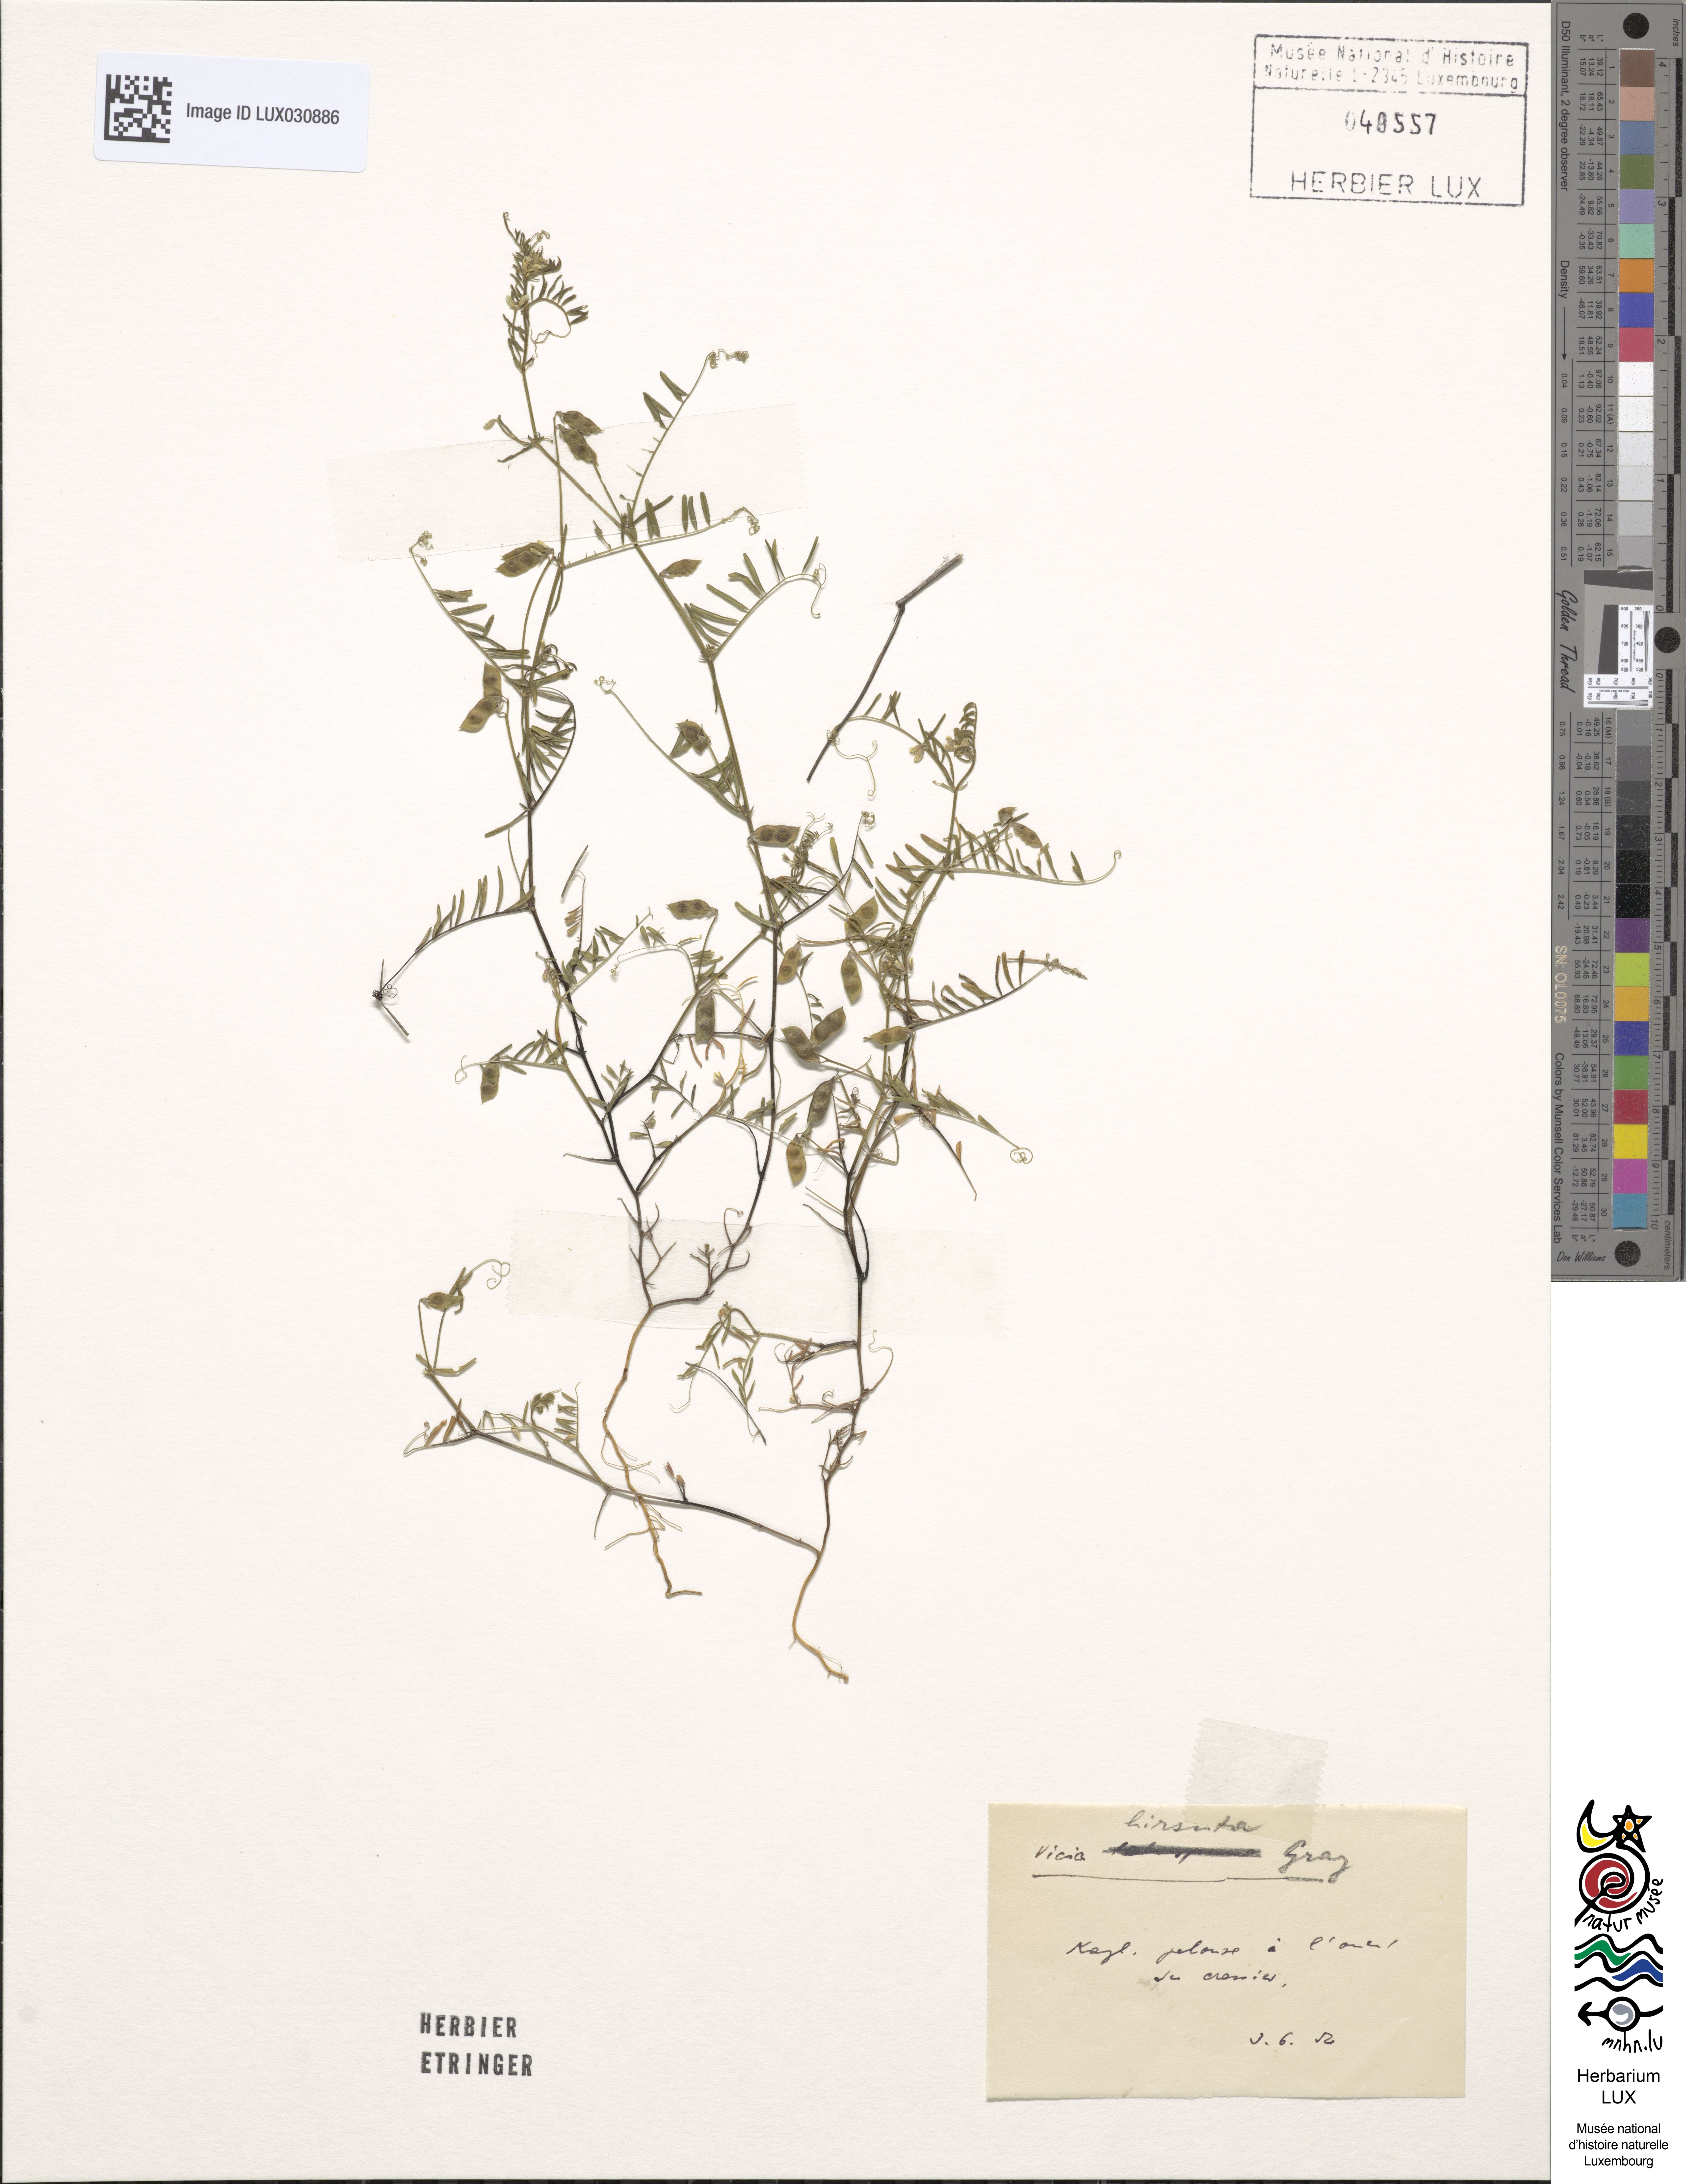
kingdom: Plantae
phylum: Tracheophyta
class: Magnoliopsida
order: Fabales
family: Fabaceae
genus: Vicia
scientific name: Vicia hirsuta
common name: Tiny vetch
